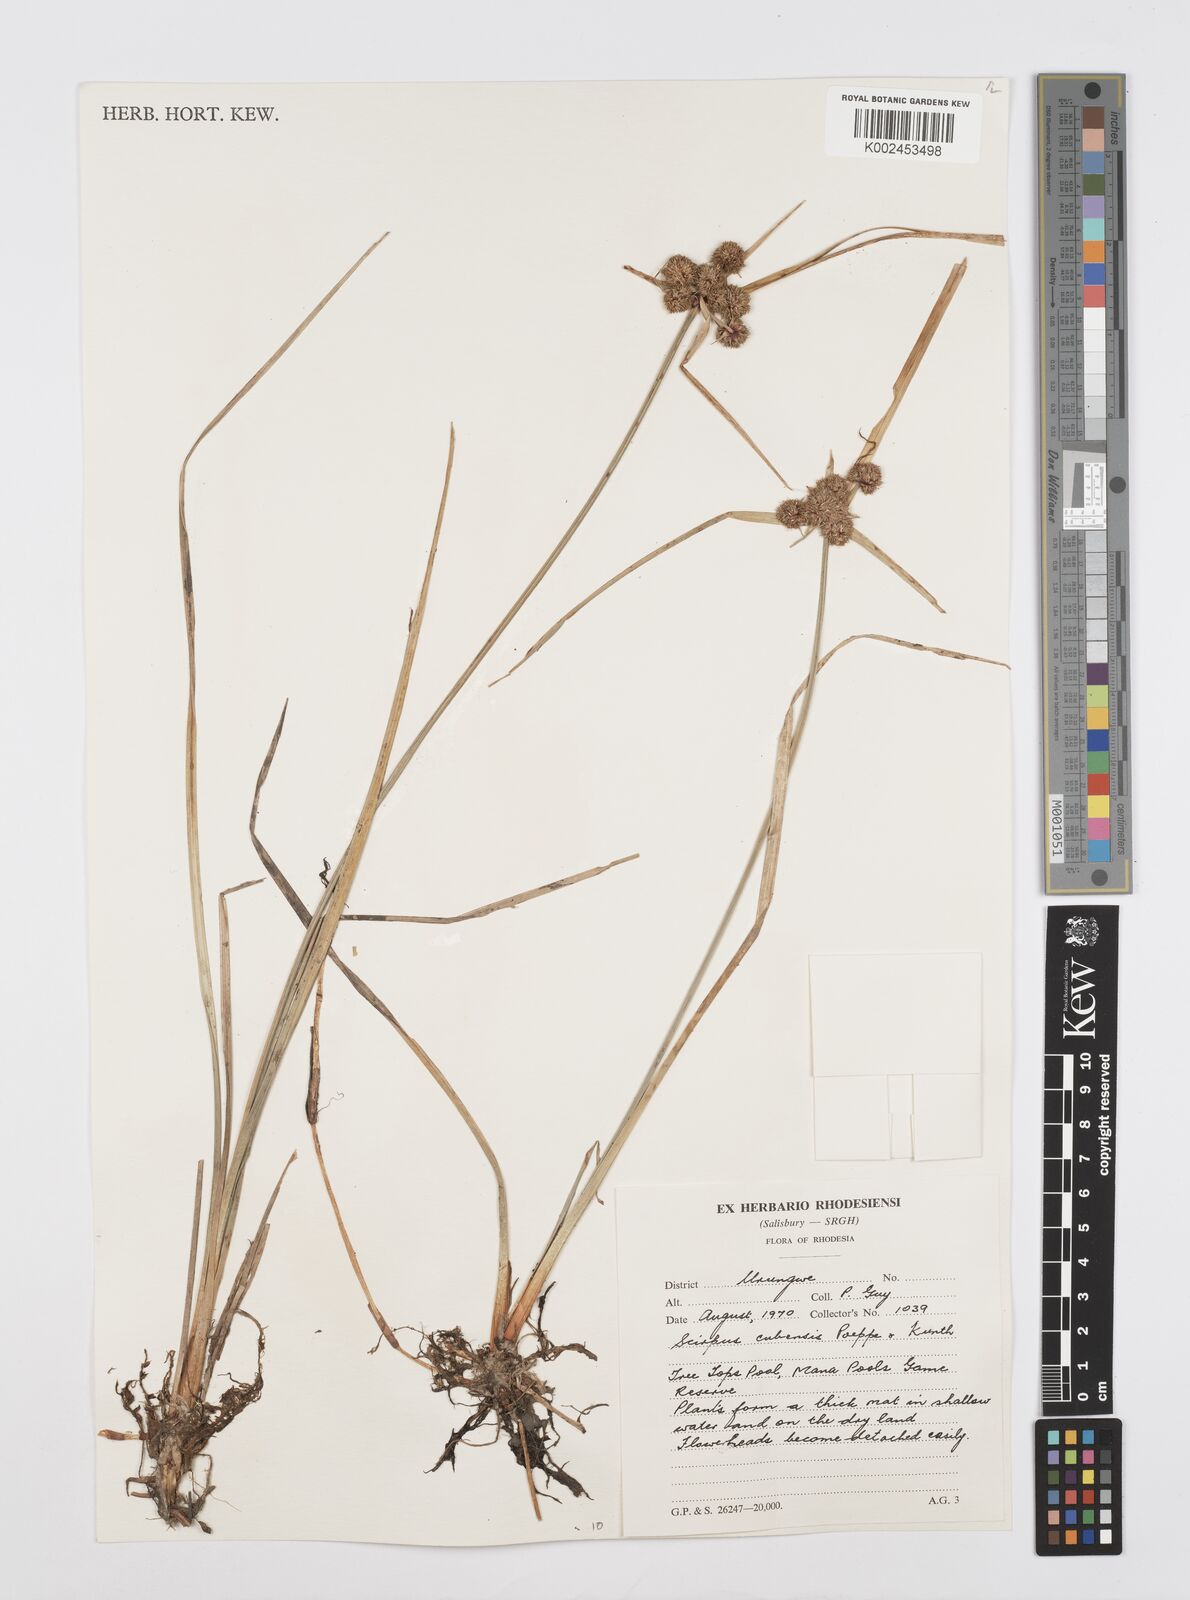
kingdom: Plantae
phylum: Tracheophyta
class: Liliopsida
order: Poales
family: Cyperaceae
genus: Cyperus
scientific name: Cyperus elegans
